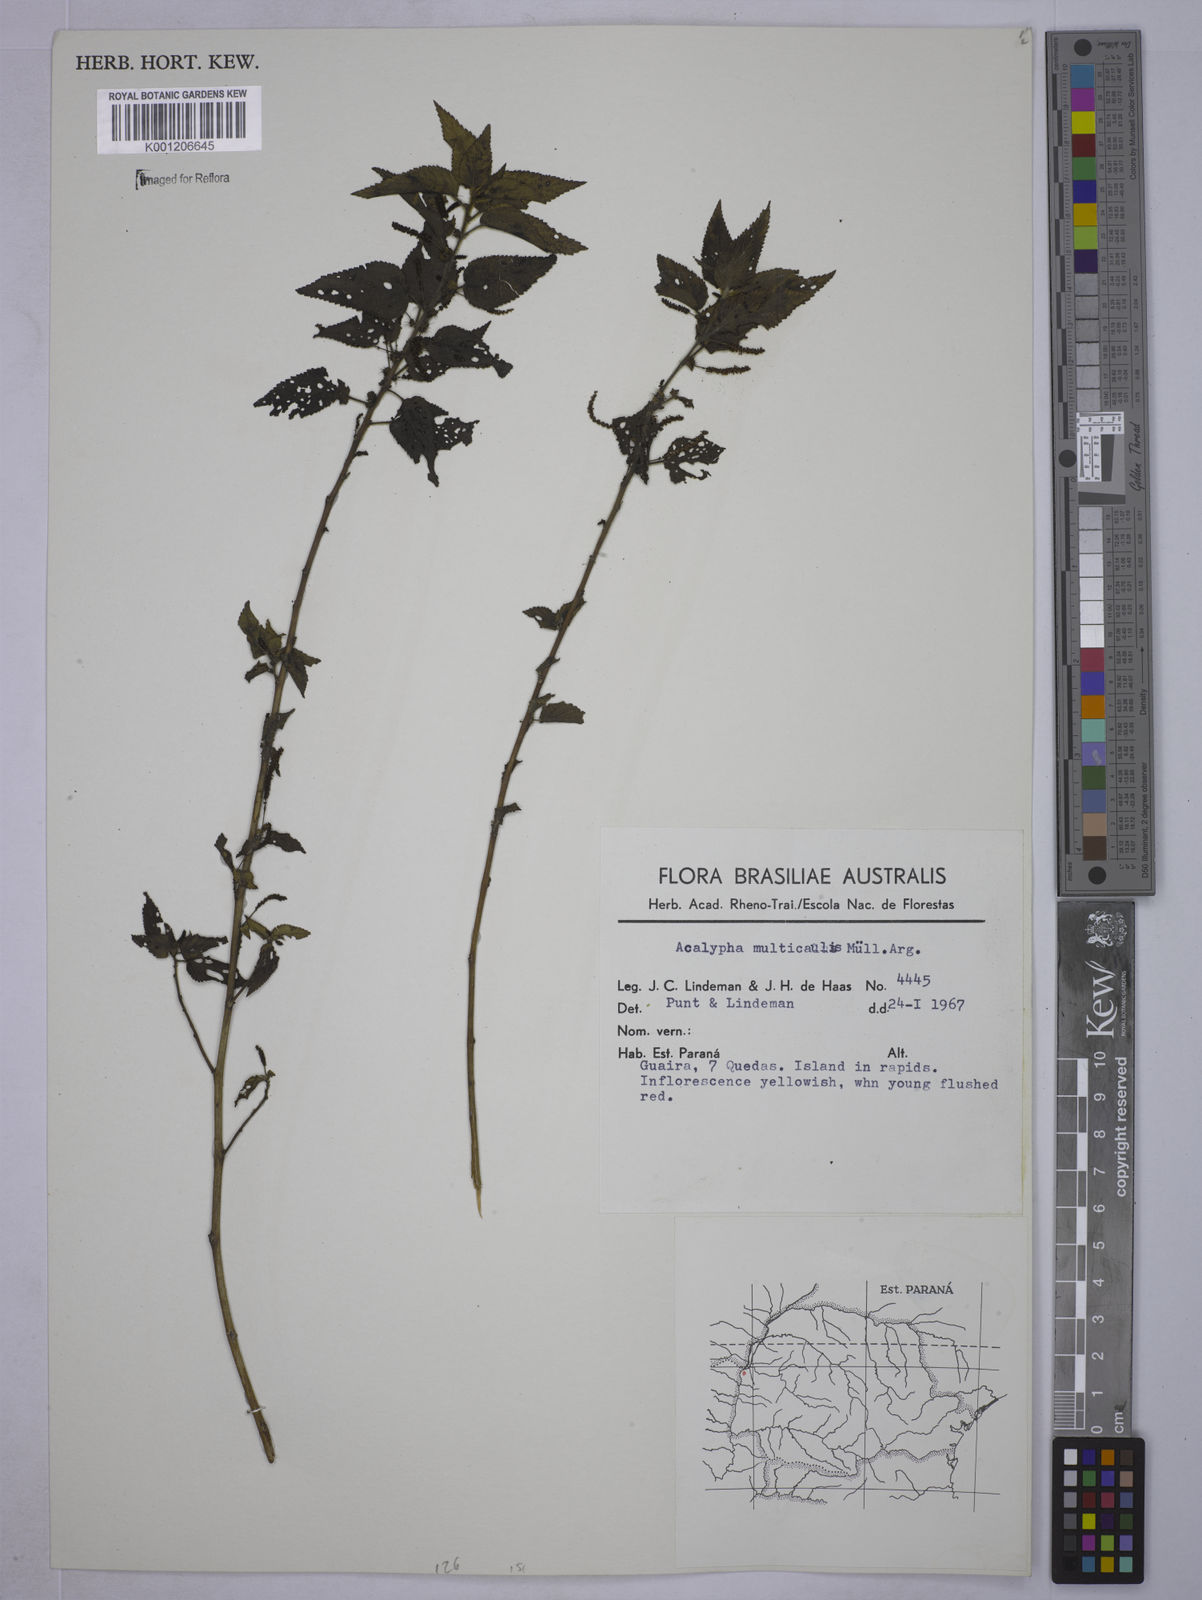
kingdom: Plantae
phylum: Tracheophyta
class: Magnoliopsida
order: Malpighiales
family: Euphorbiaceae
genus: Acalypha
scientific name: Acalypha
